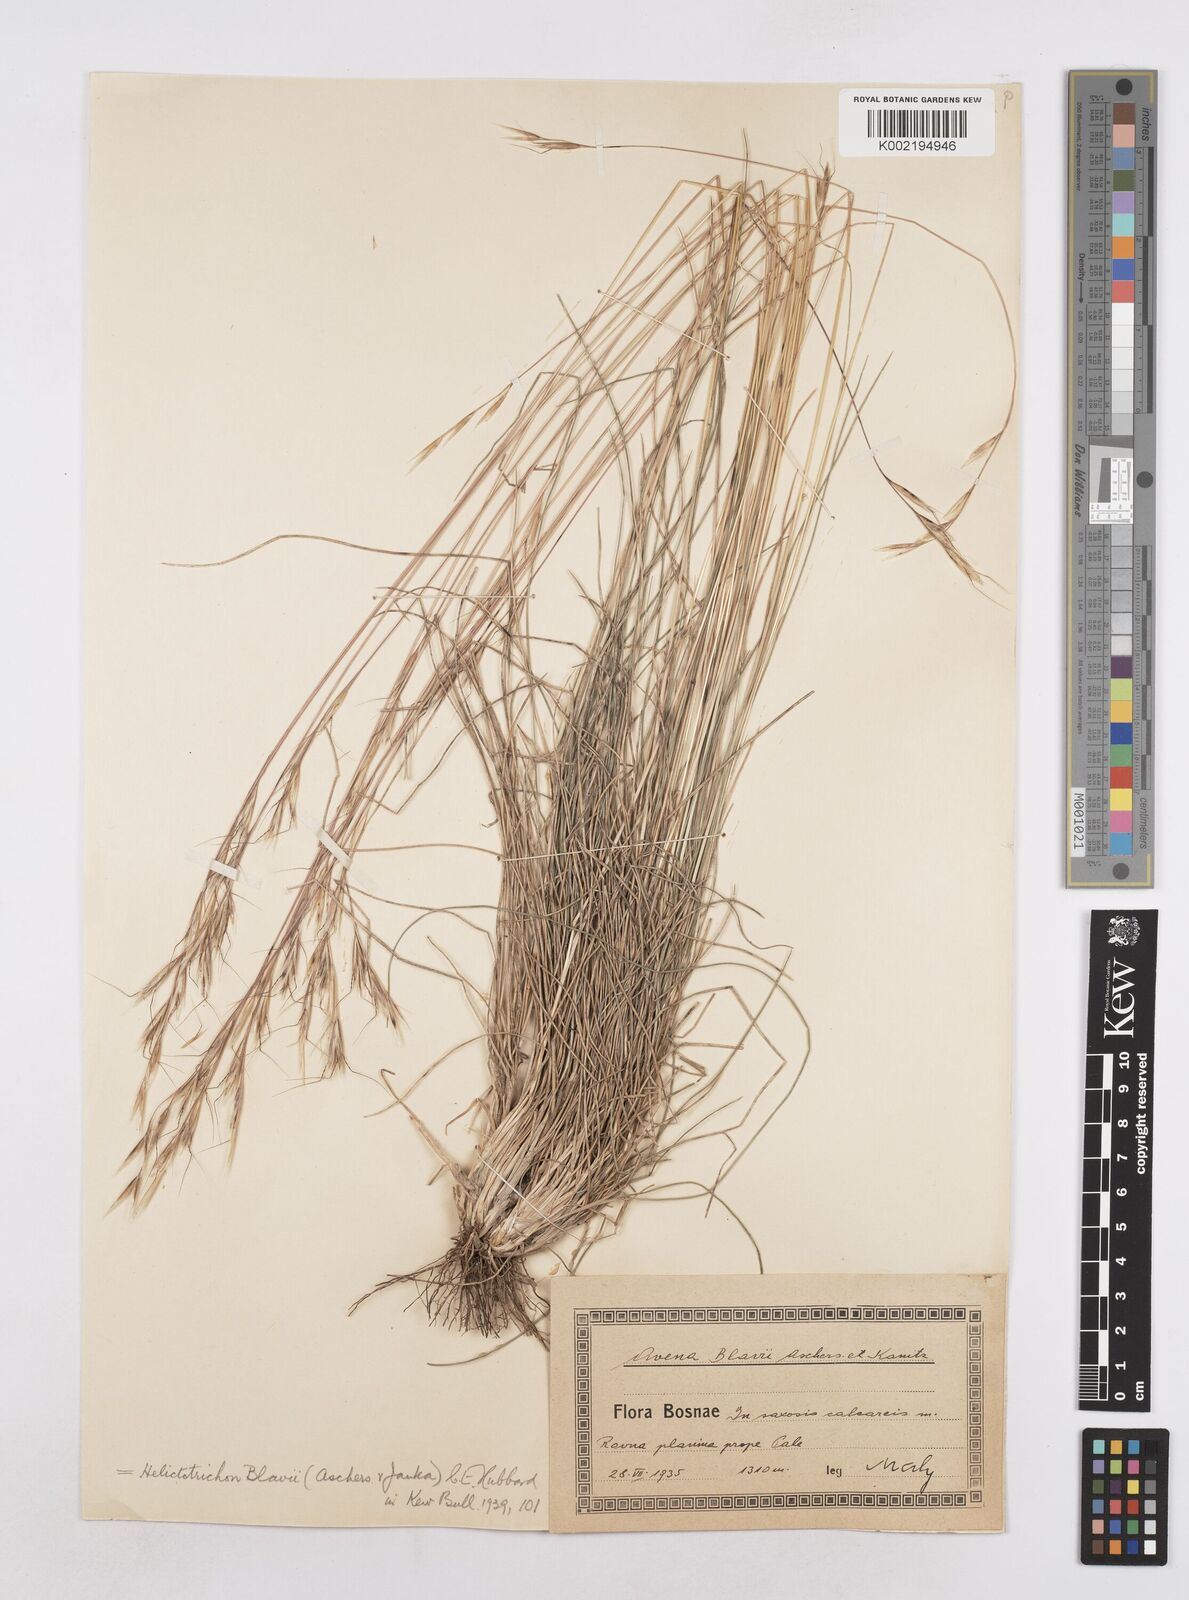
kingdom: Plantae
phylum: Tracheophyta
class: Liliopsida
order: Poales
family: Poaceae
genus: Helictochloa
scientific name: Helictochloa blaui
